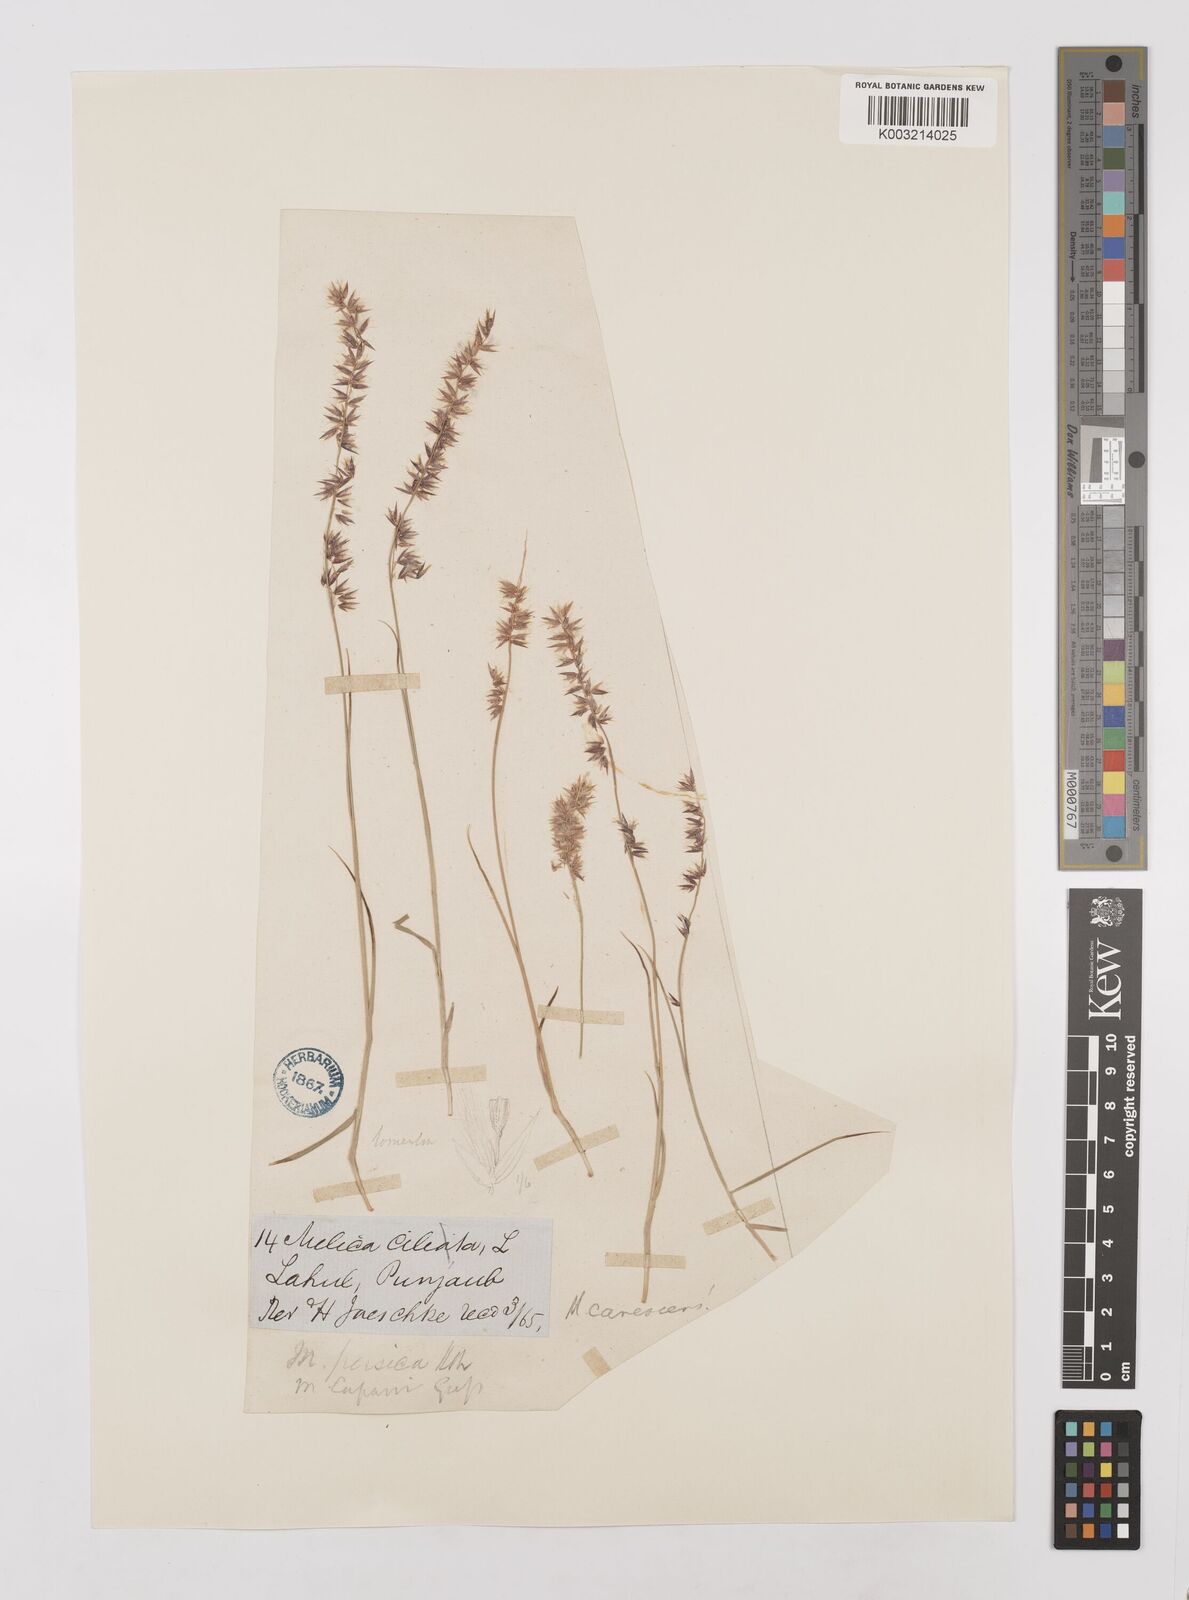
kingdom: Plantae
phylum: Tracheophyta
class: Liliopsida
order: Poales
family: Poaceae
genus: Melica
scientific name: Melica persica
